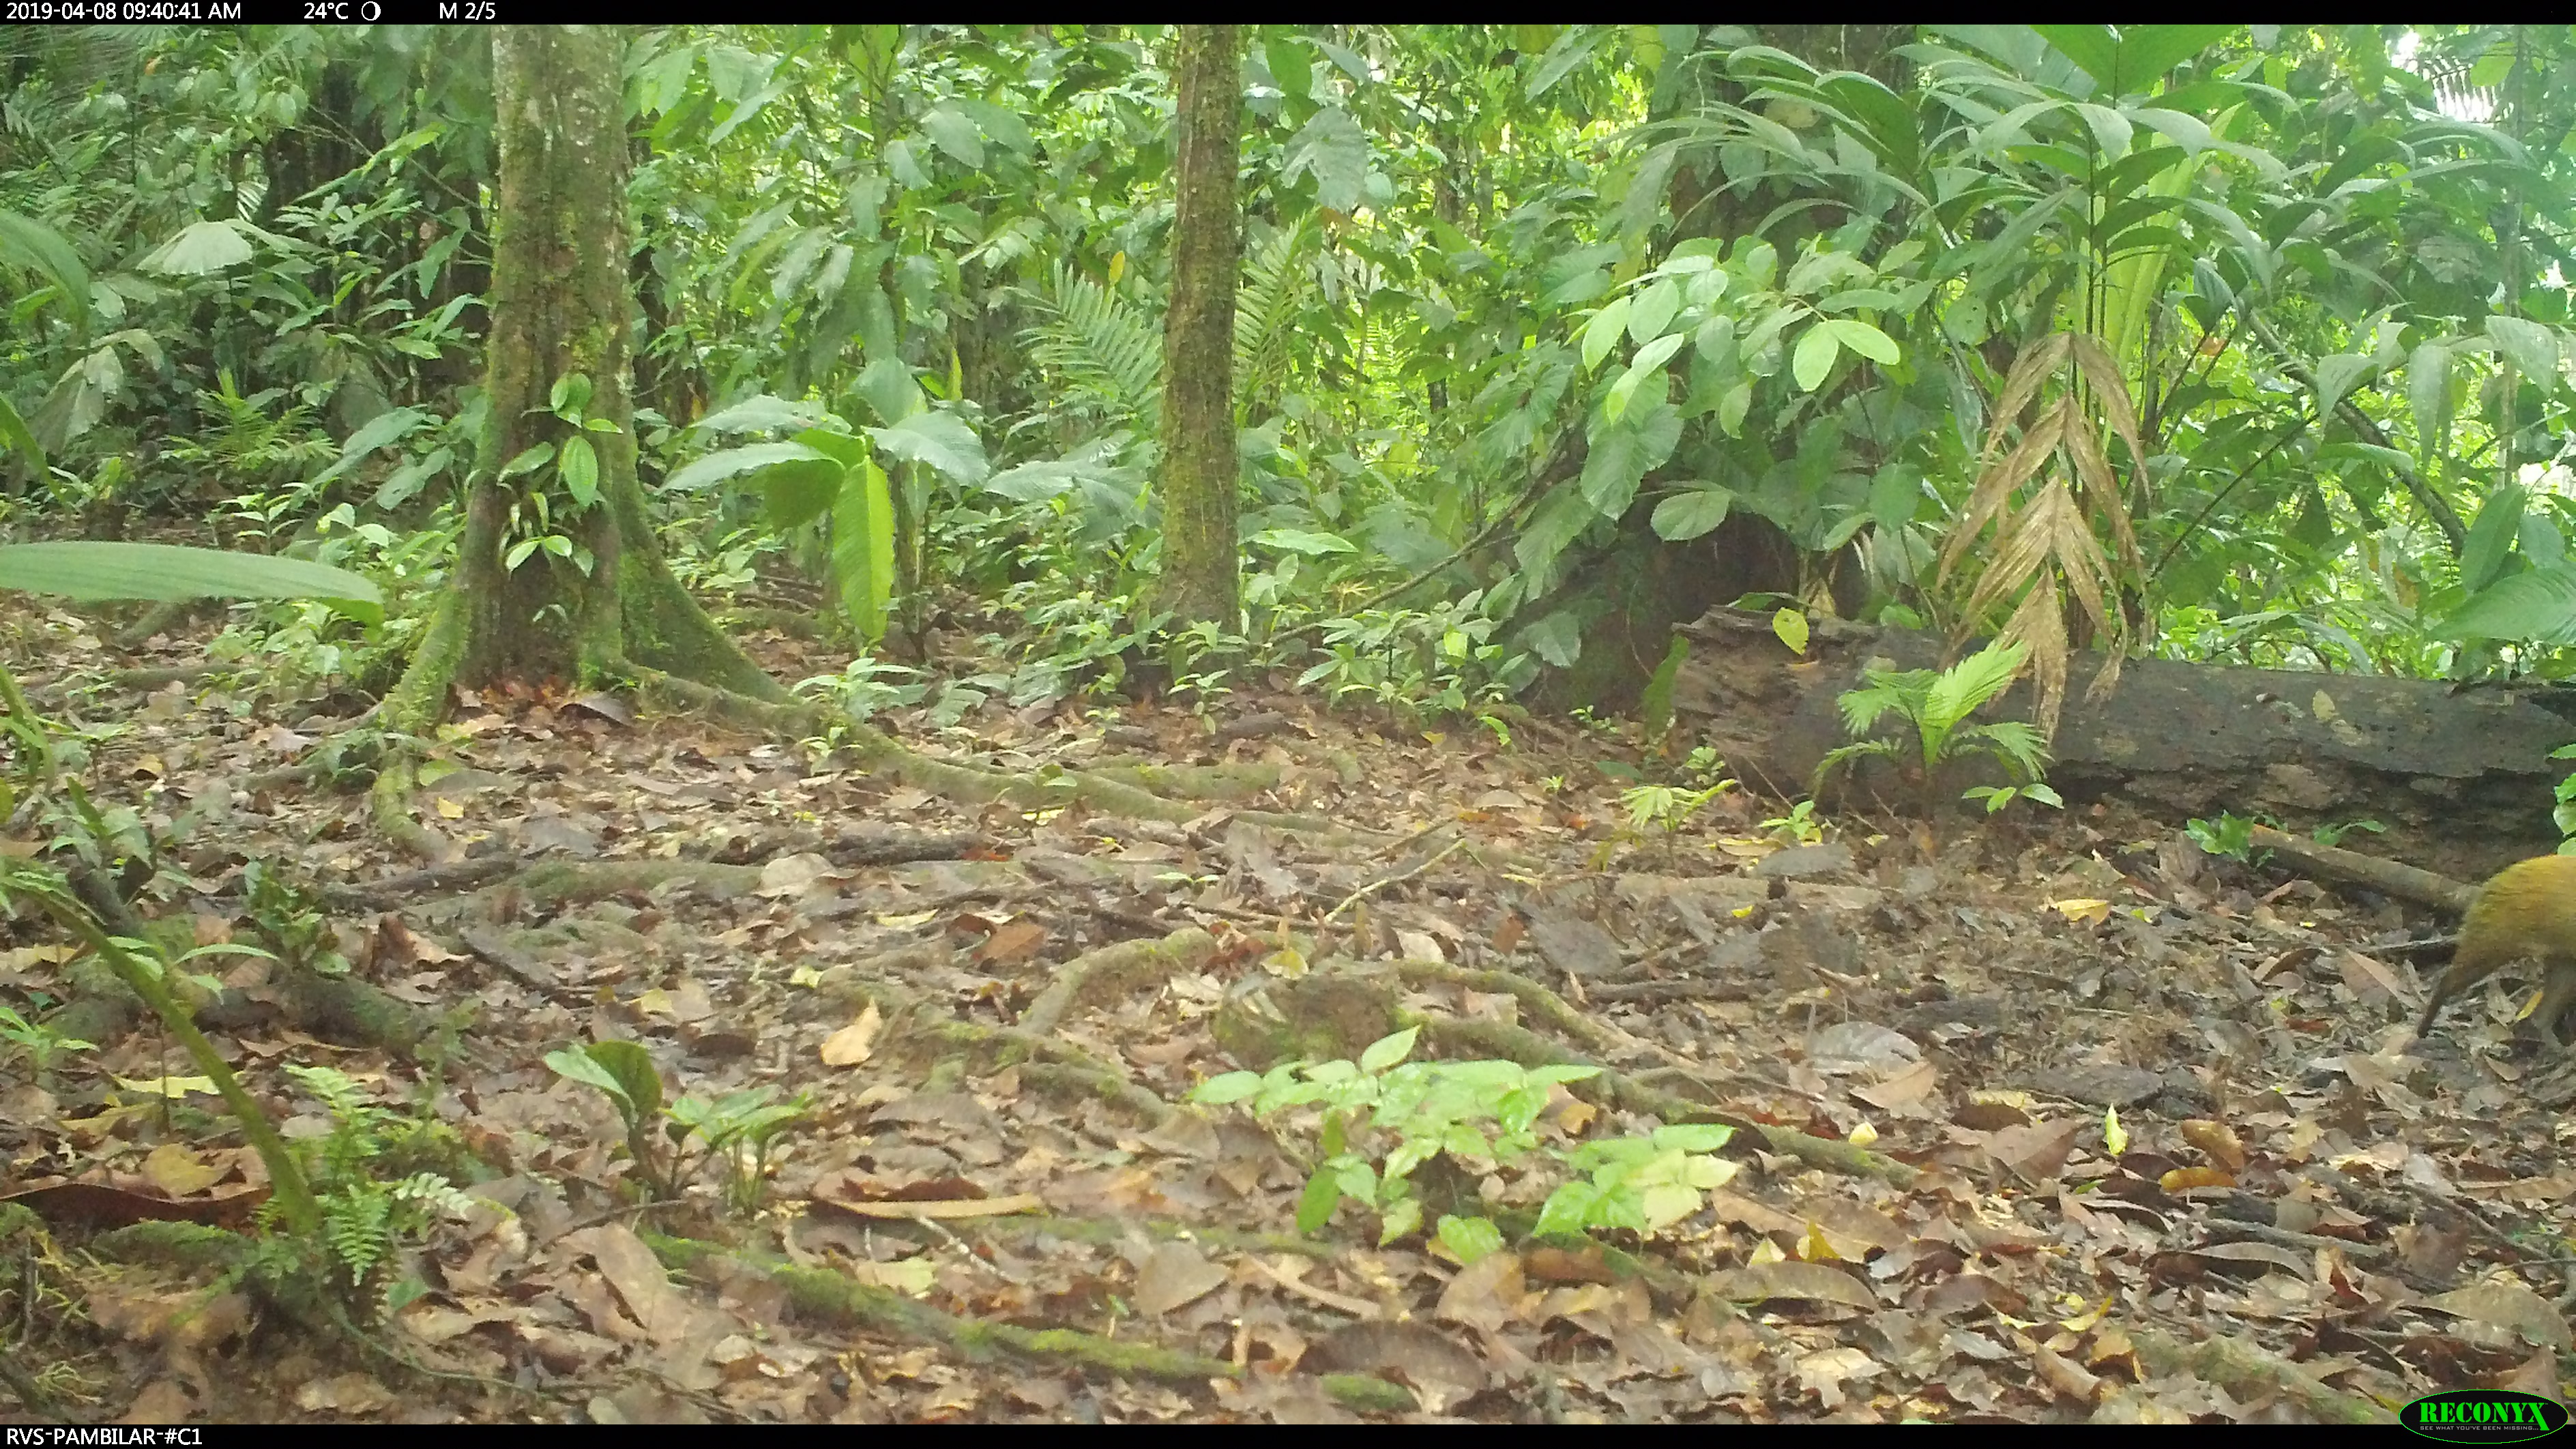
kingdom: Animalia
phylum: Chordata
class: Mammalia
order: Rodentia
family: Dasyproctidae
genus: Dasyprocta
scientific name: Dasyprocta punctata
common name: Central american agouti
